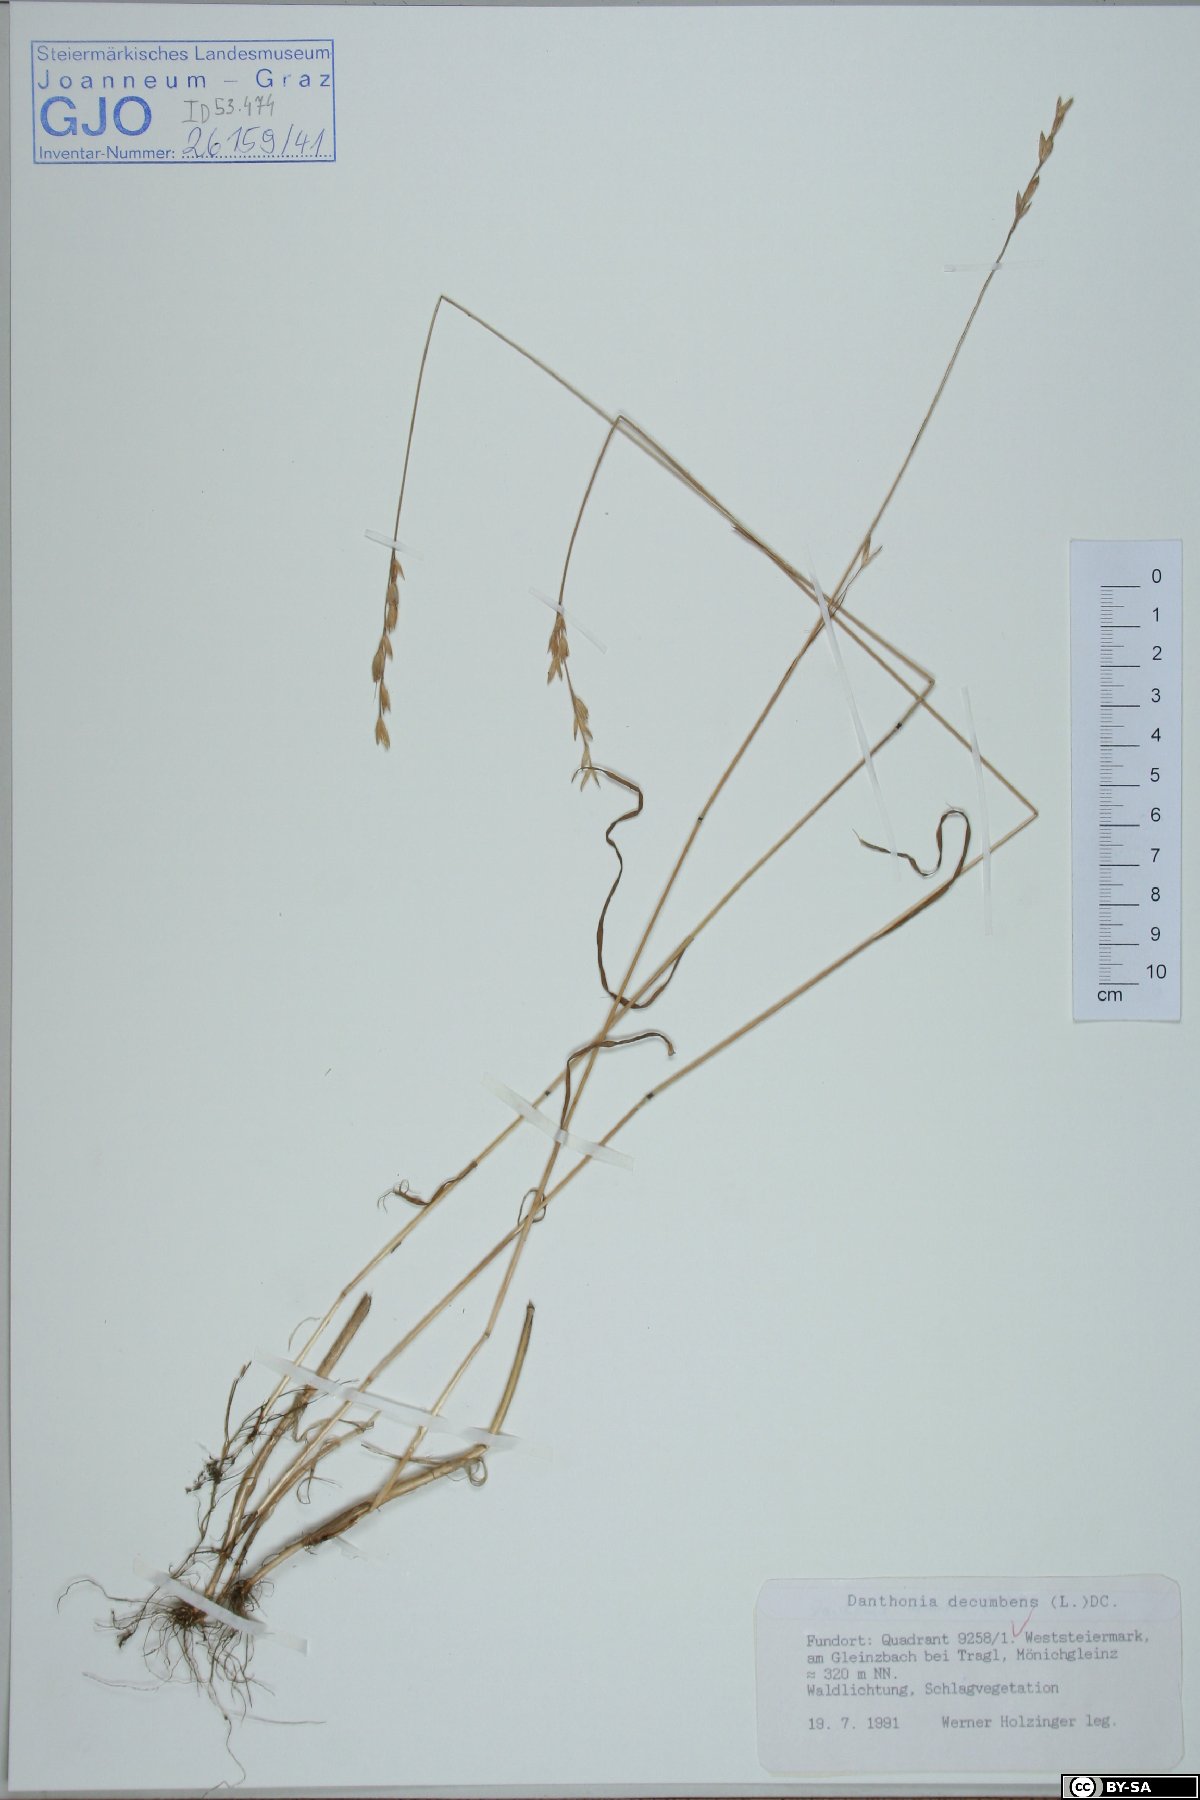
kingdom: Plantae
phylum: Tracheophyta
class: Liliopsida
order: Poales
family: Poaceae
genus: Danthonia
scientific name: Danthonia decumbens
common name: Common heathgrass
